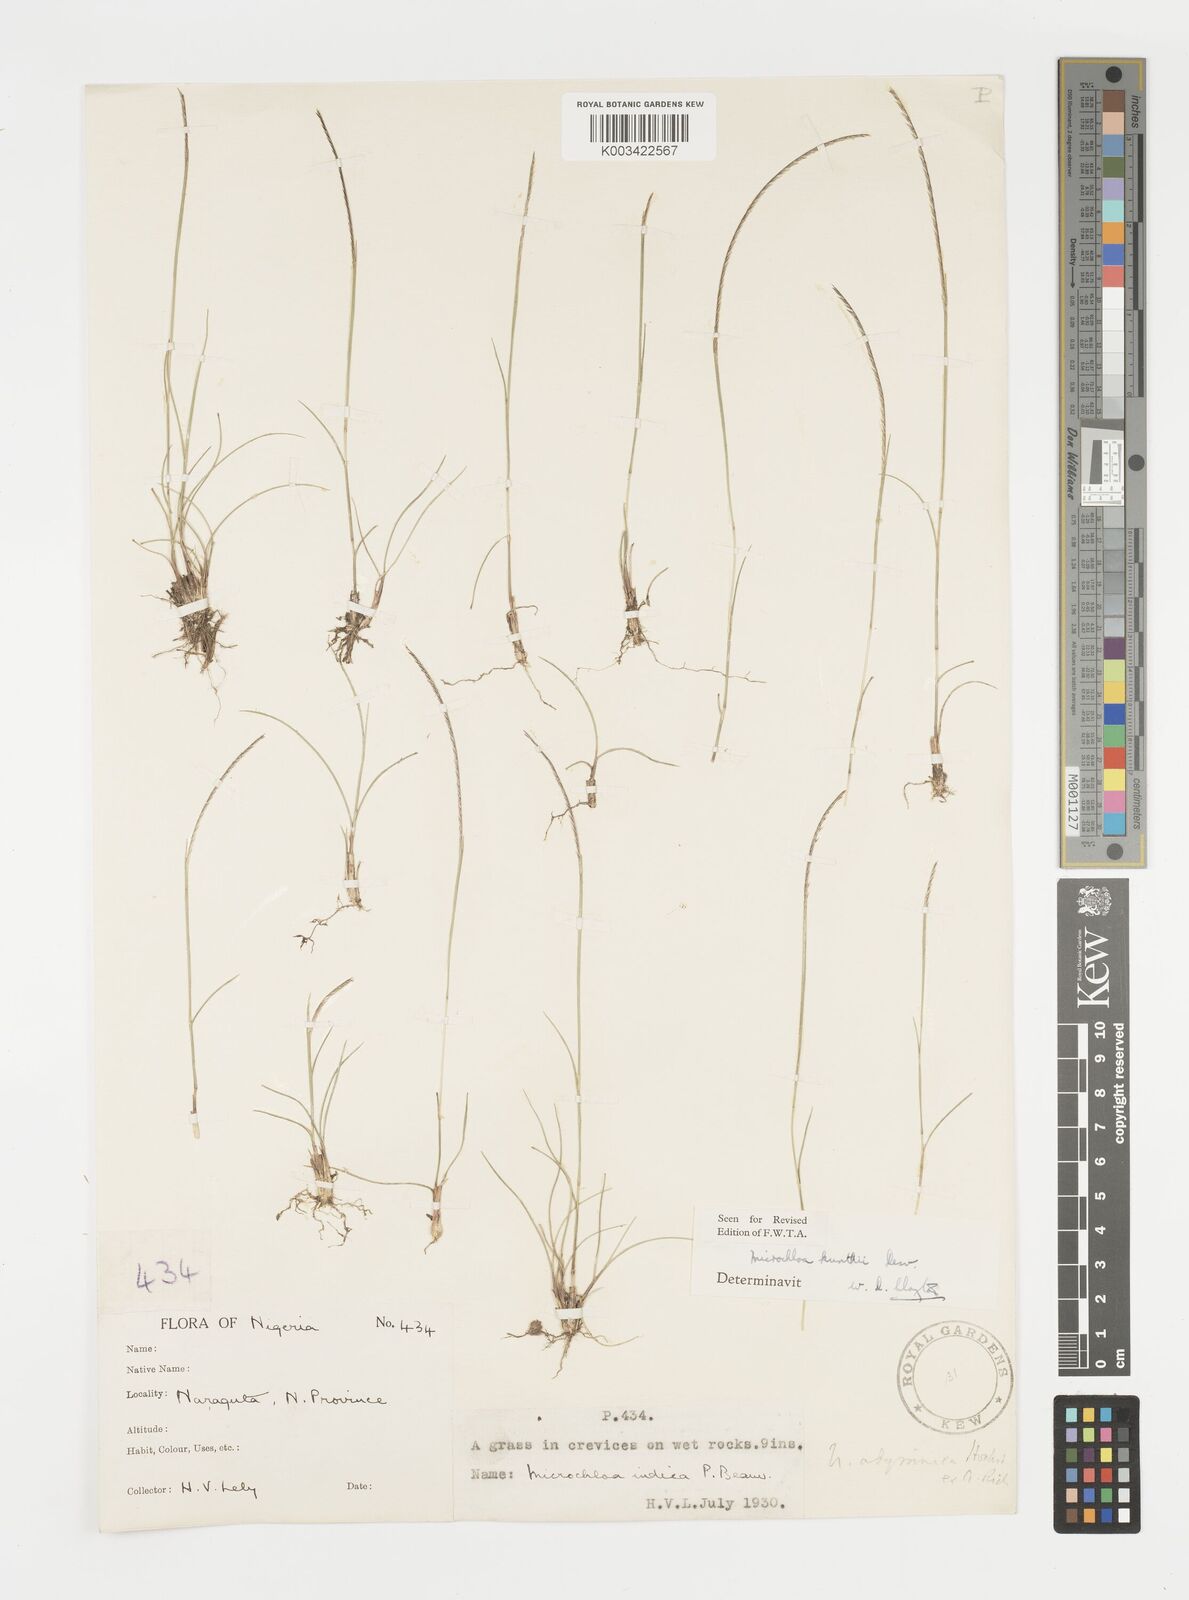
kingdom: Plantae
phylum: Tracheophyta
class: Liliopsida
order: Poales
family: Poaceae
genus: Microchloa
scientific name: Microchloa kunthii
